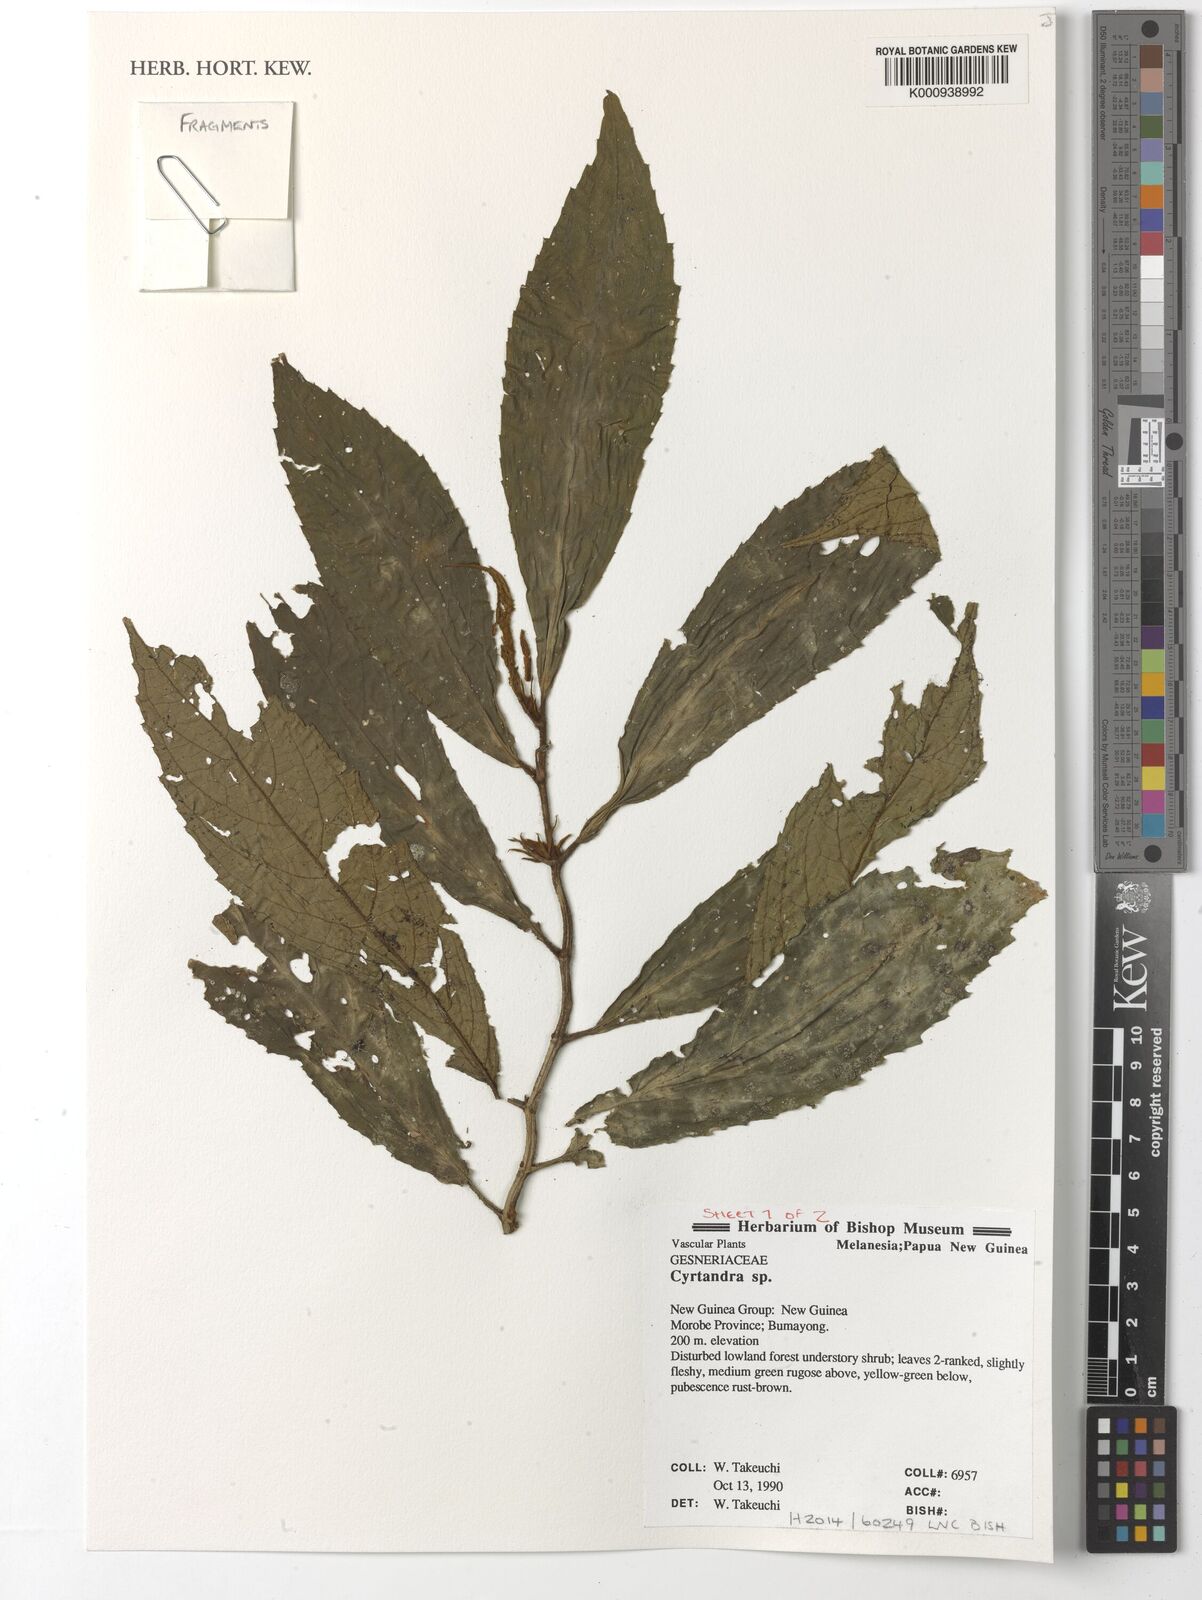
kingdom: Plantae
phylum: Tracheophyta
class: Magnoliopsida
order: Lamiales
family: Gesneriaceae
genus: Cyrtandra
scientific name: Cyrtandra
